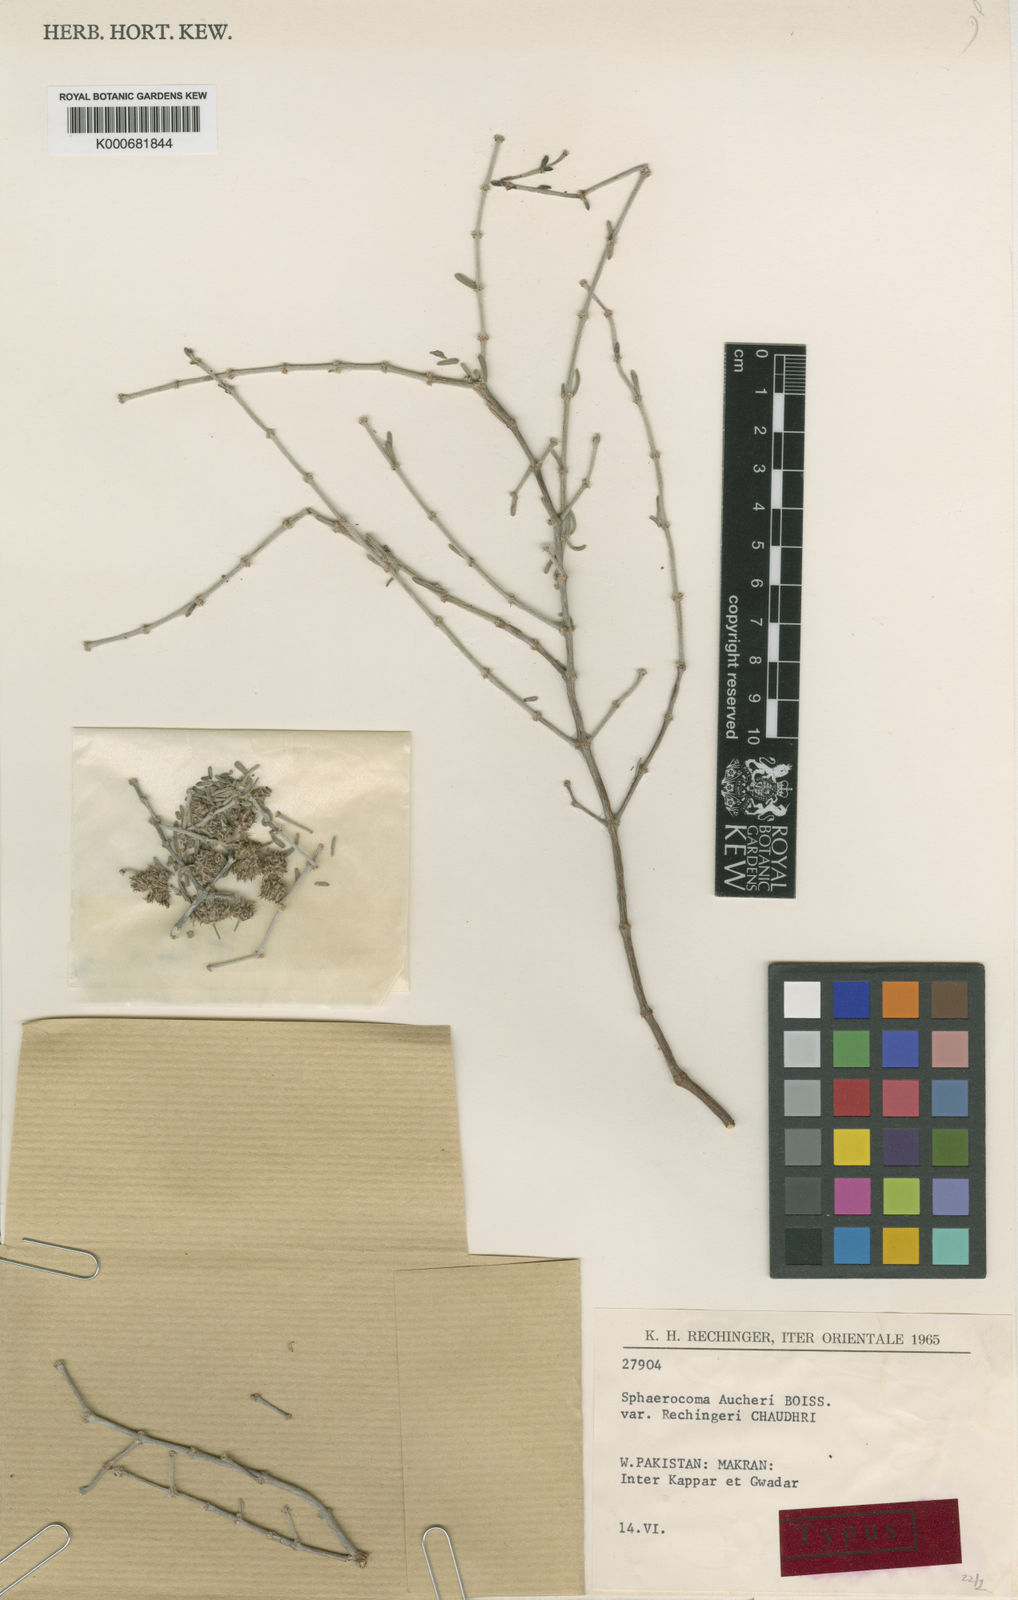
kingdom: Plantae
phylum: Tracheophyta
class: Magnoliopsida
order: Caryophyllales
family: Caryophyllaceae
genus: Sphaerocoma
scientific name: Sphaerocoma hookeri
